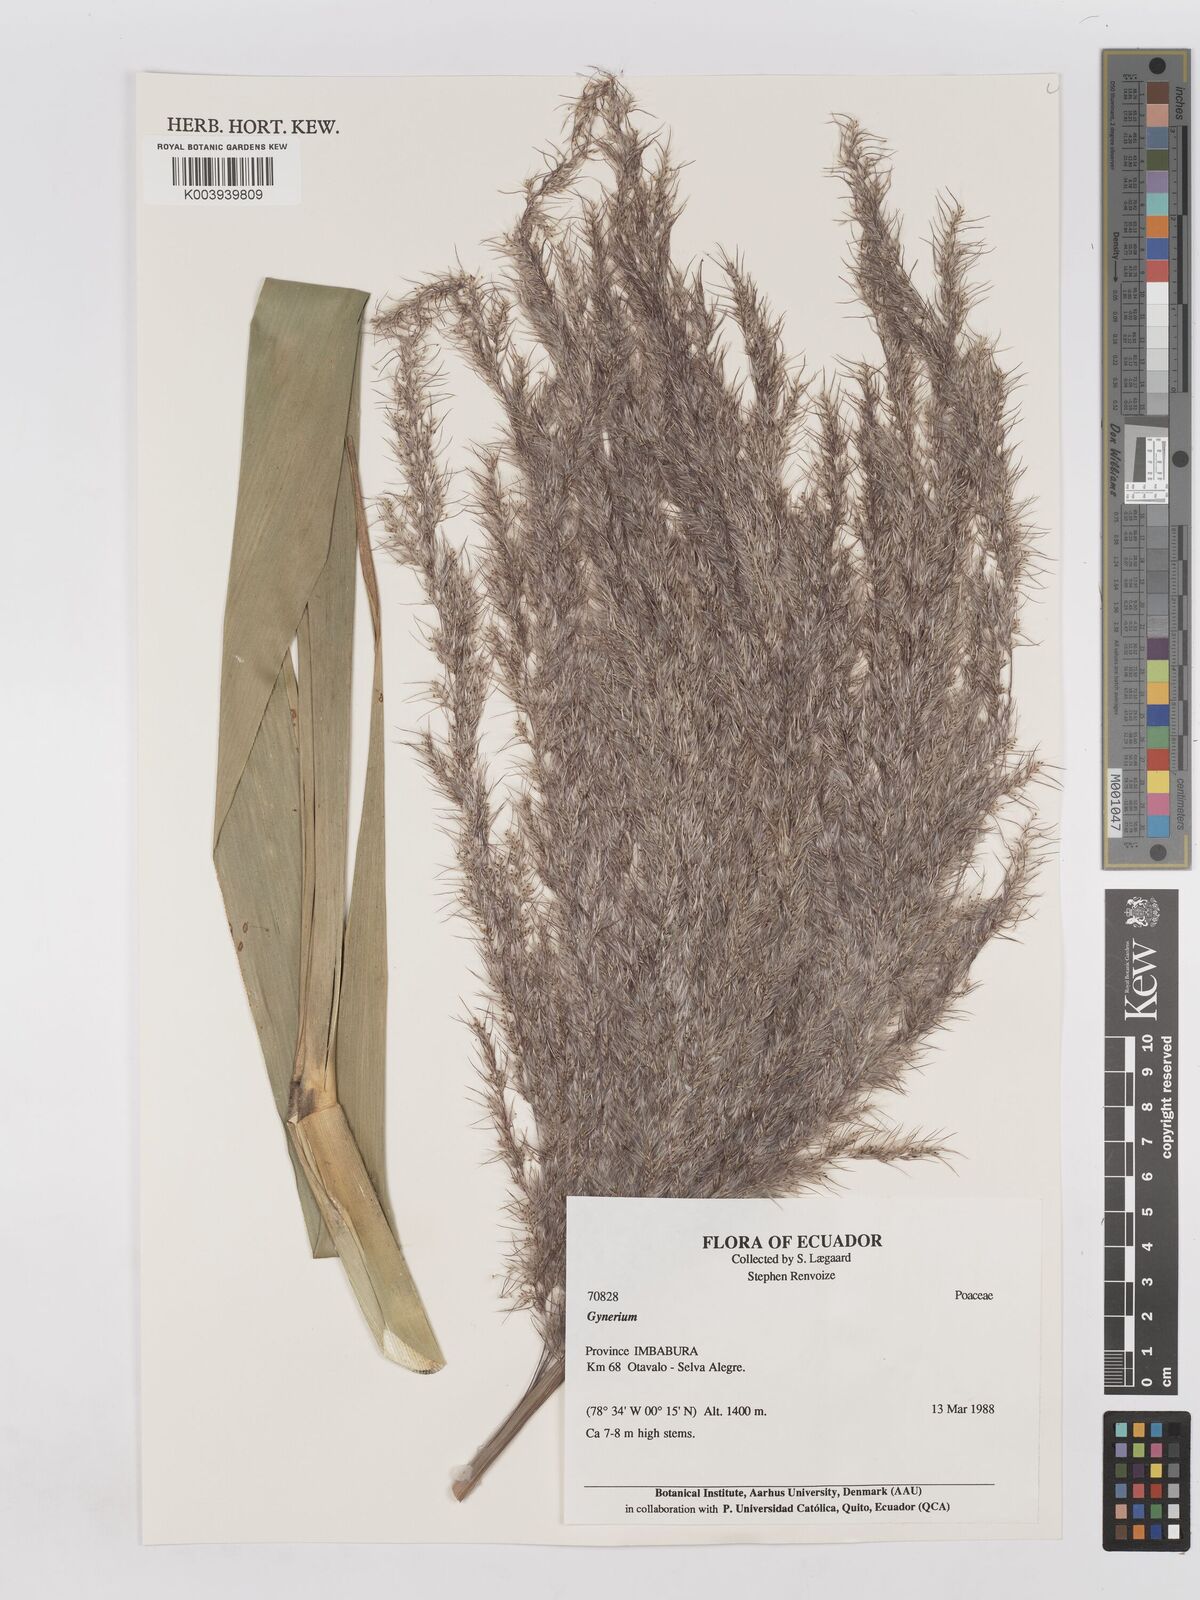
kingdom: Plantae
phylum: Tracheophyta
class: Liliopsida
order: Poales
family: Poaceae
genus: Gynerium
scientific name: Gynerium sagittatum
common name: Wild cane
